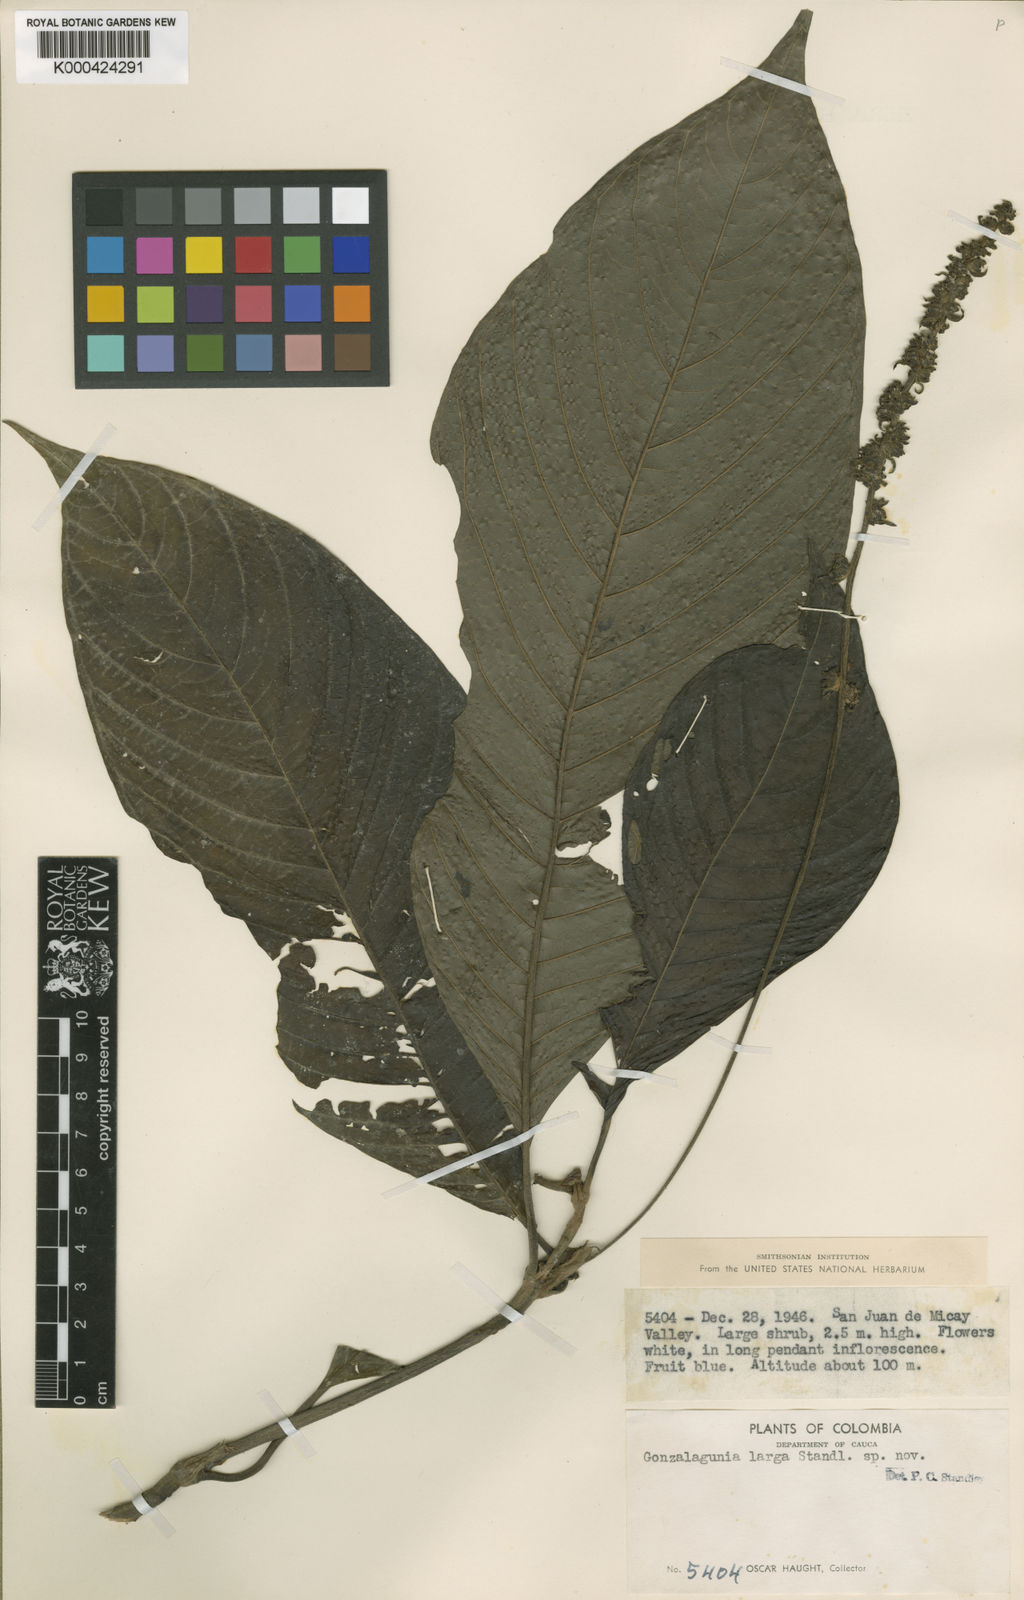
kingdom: Plantae
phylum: Tracheophyta
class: Magnoliopsida
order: Gentianales
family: Rubiaceae
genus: Gonzalagunia
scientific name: Gonzalagunia
